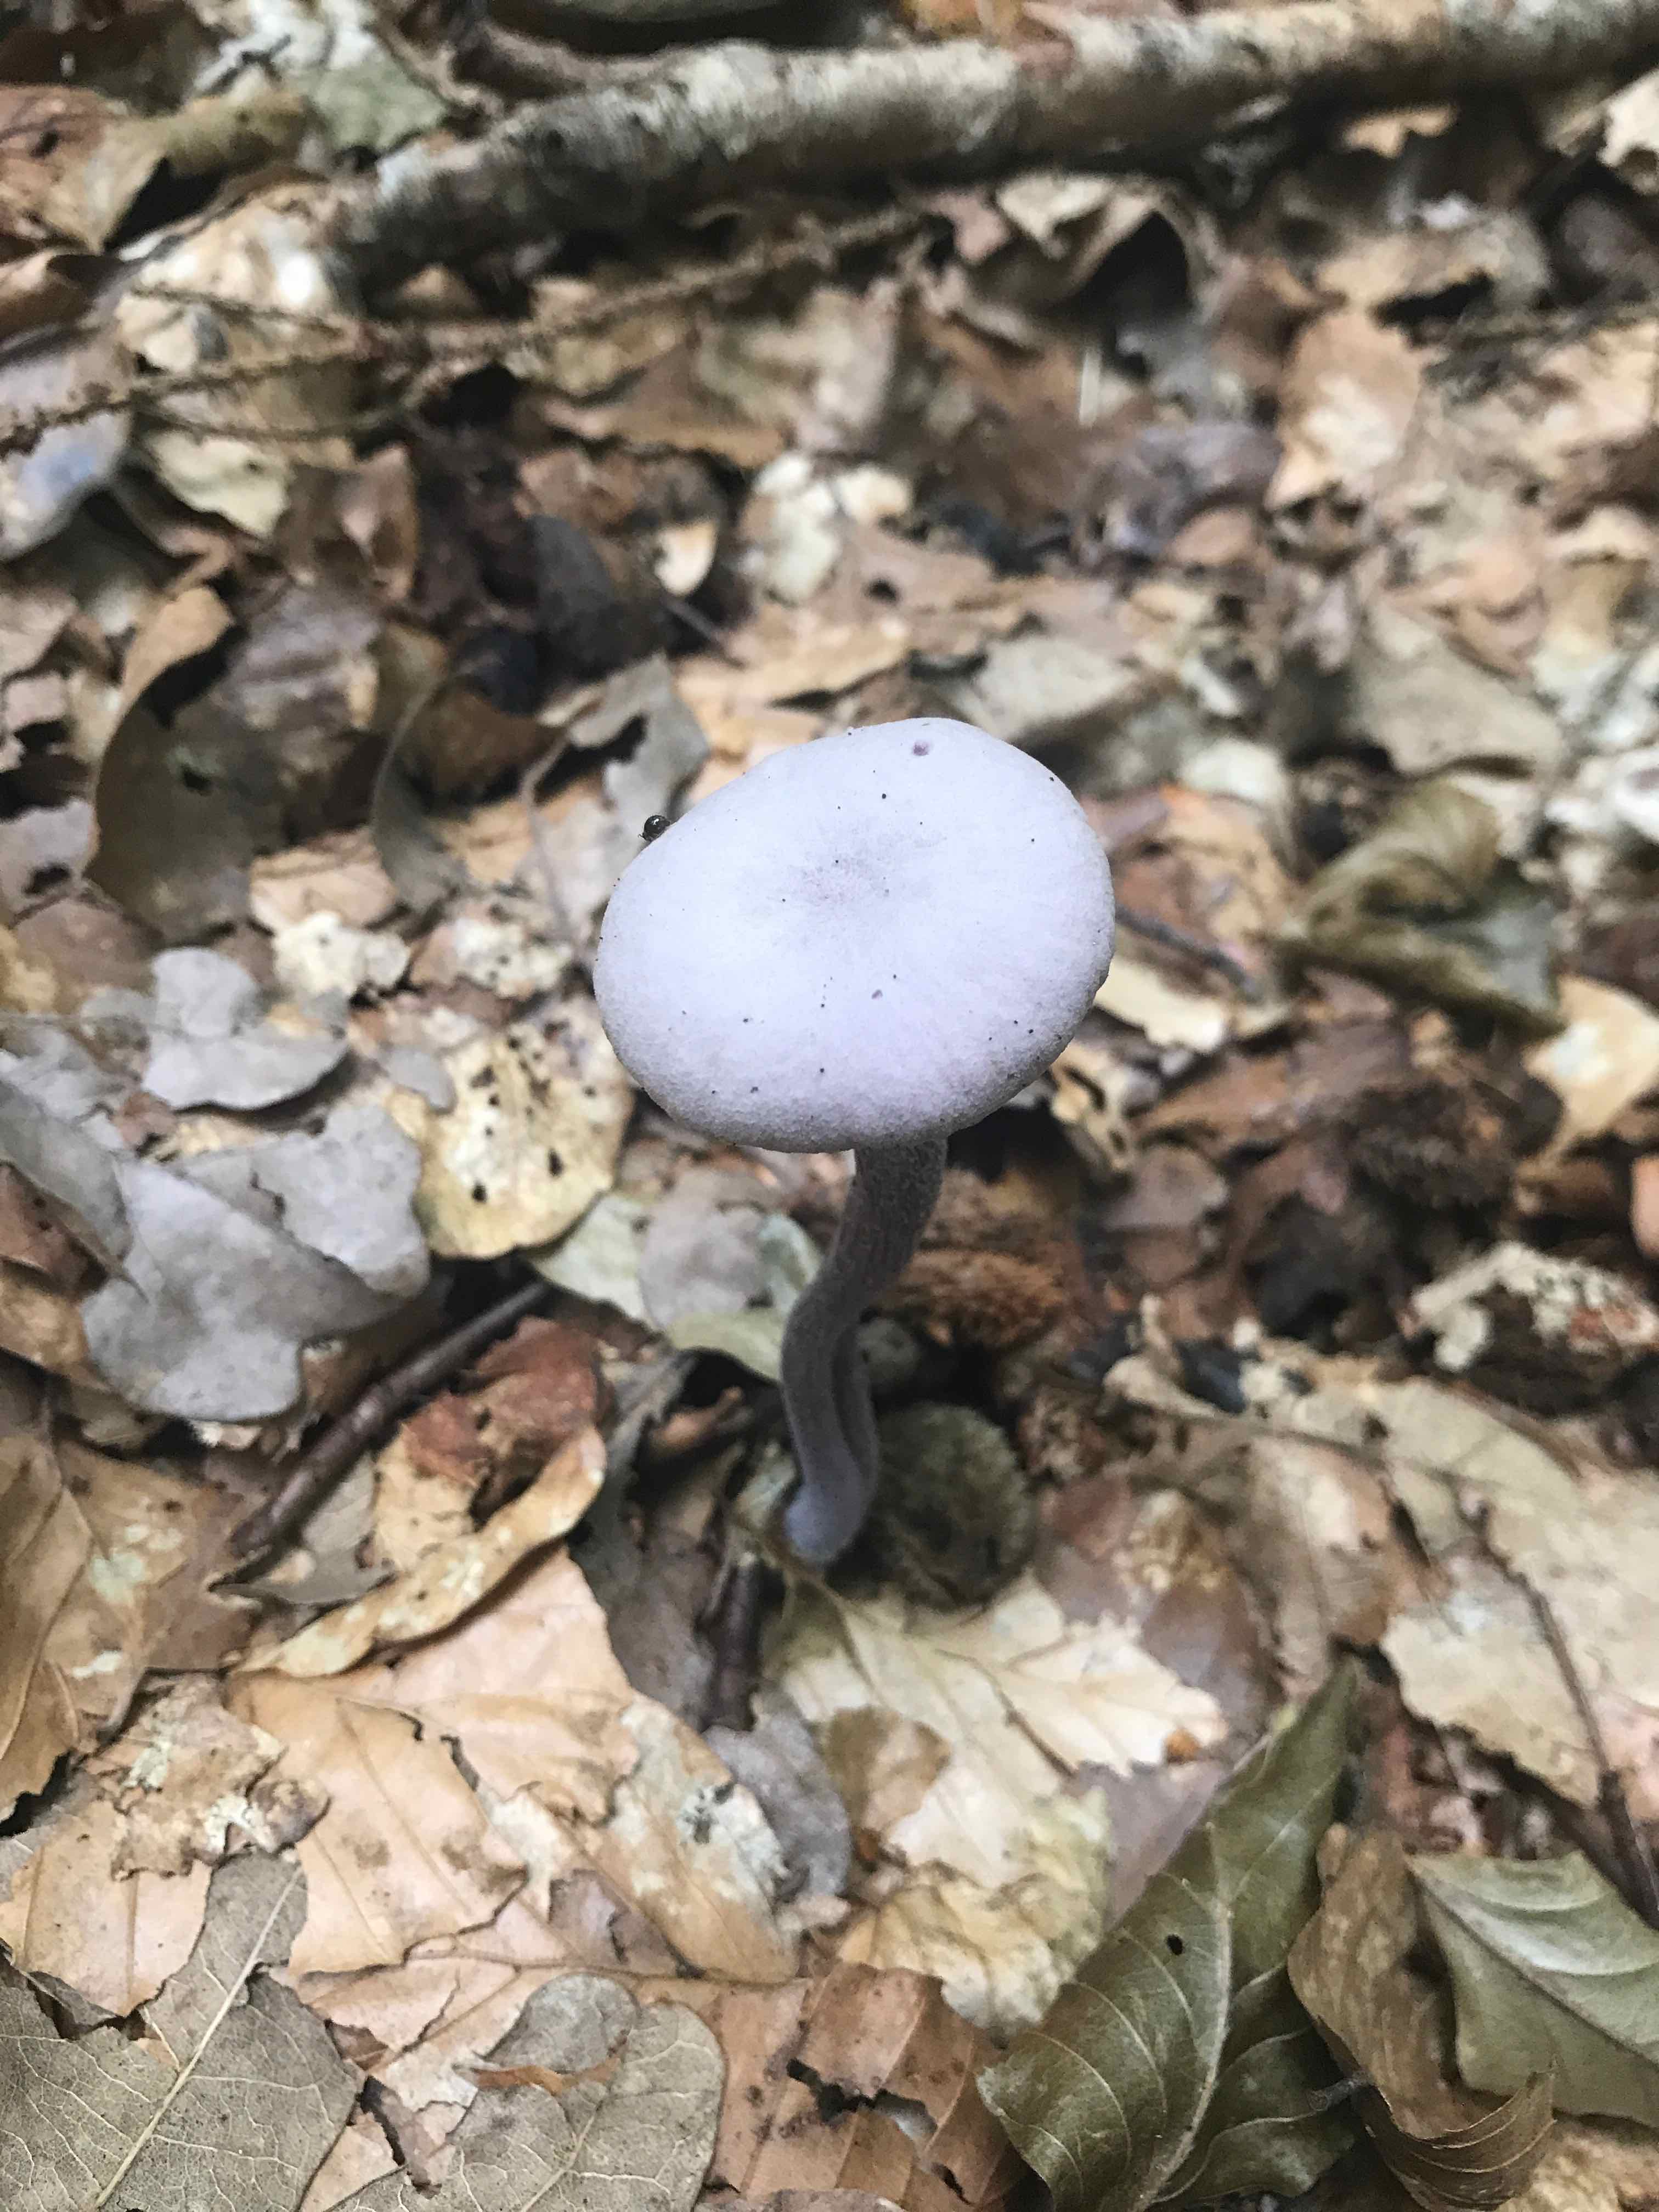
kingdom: Fungi
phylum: Basidiomycota
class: Agaricomycetes
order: Agaricales
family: Hydnangiaceae
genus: Laccaria
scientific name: Laccaria amethystina
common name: violet ametysthat
